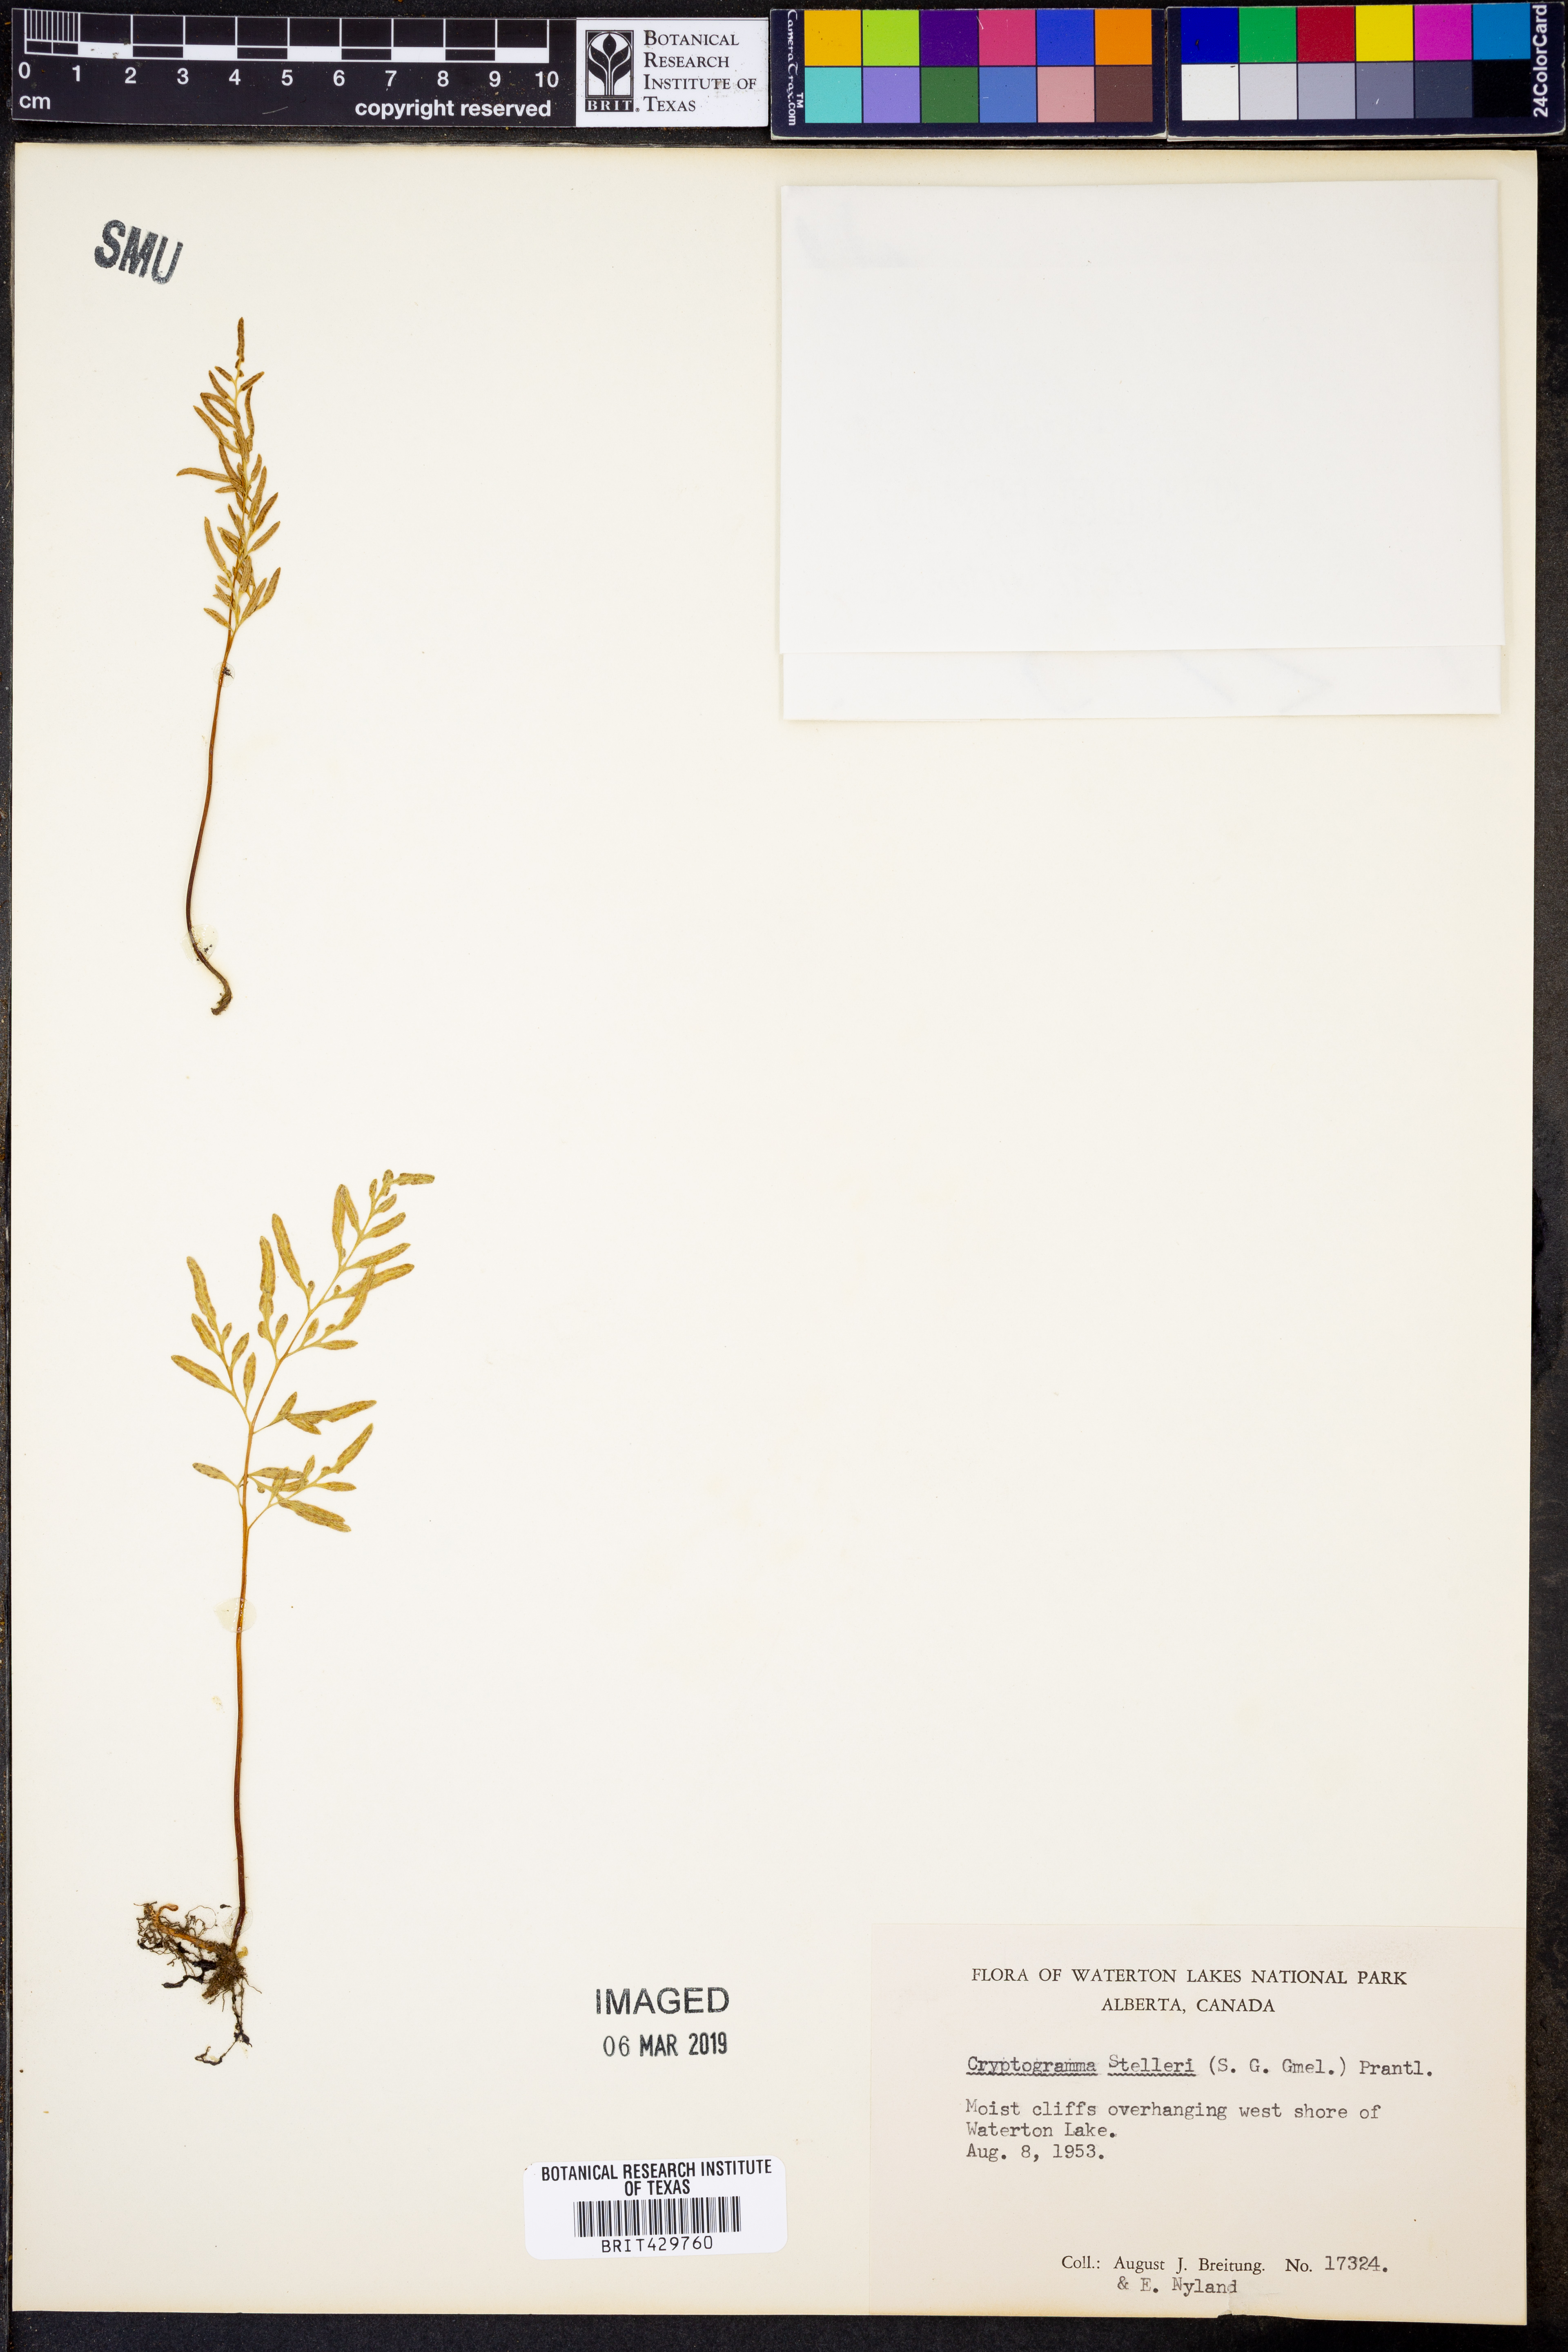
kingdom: Plantae
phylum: Tracheophyta
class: Polypodiopsida
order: Polypodiales
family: Pteridaceae
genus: Cryptogramma
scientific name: Cryptogramma stelleri
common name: Cliff-brake
